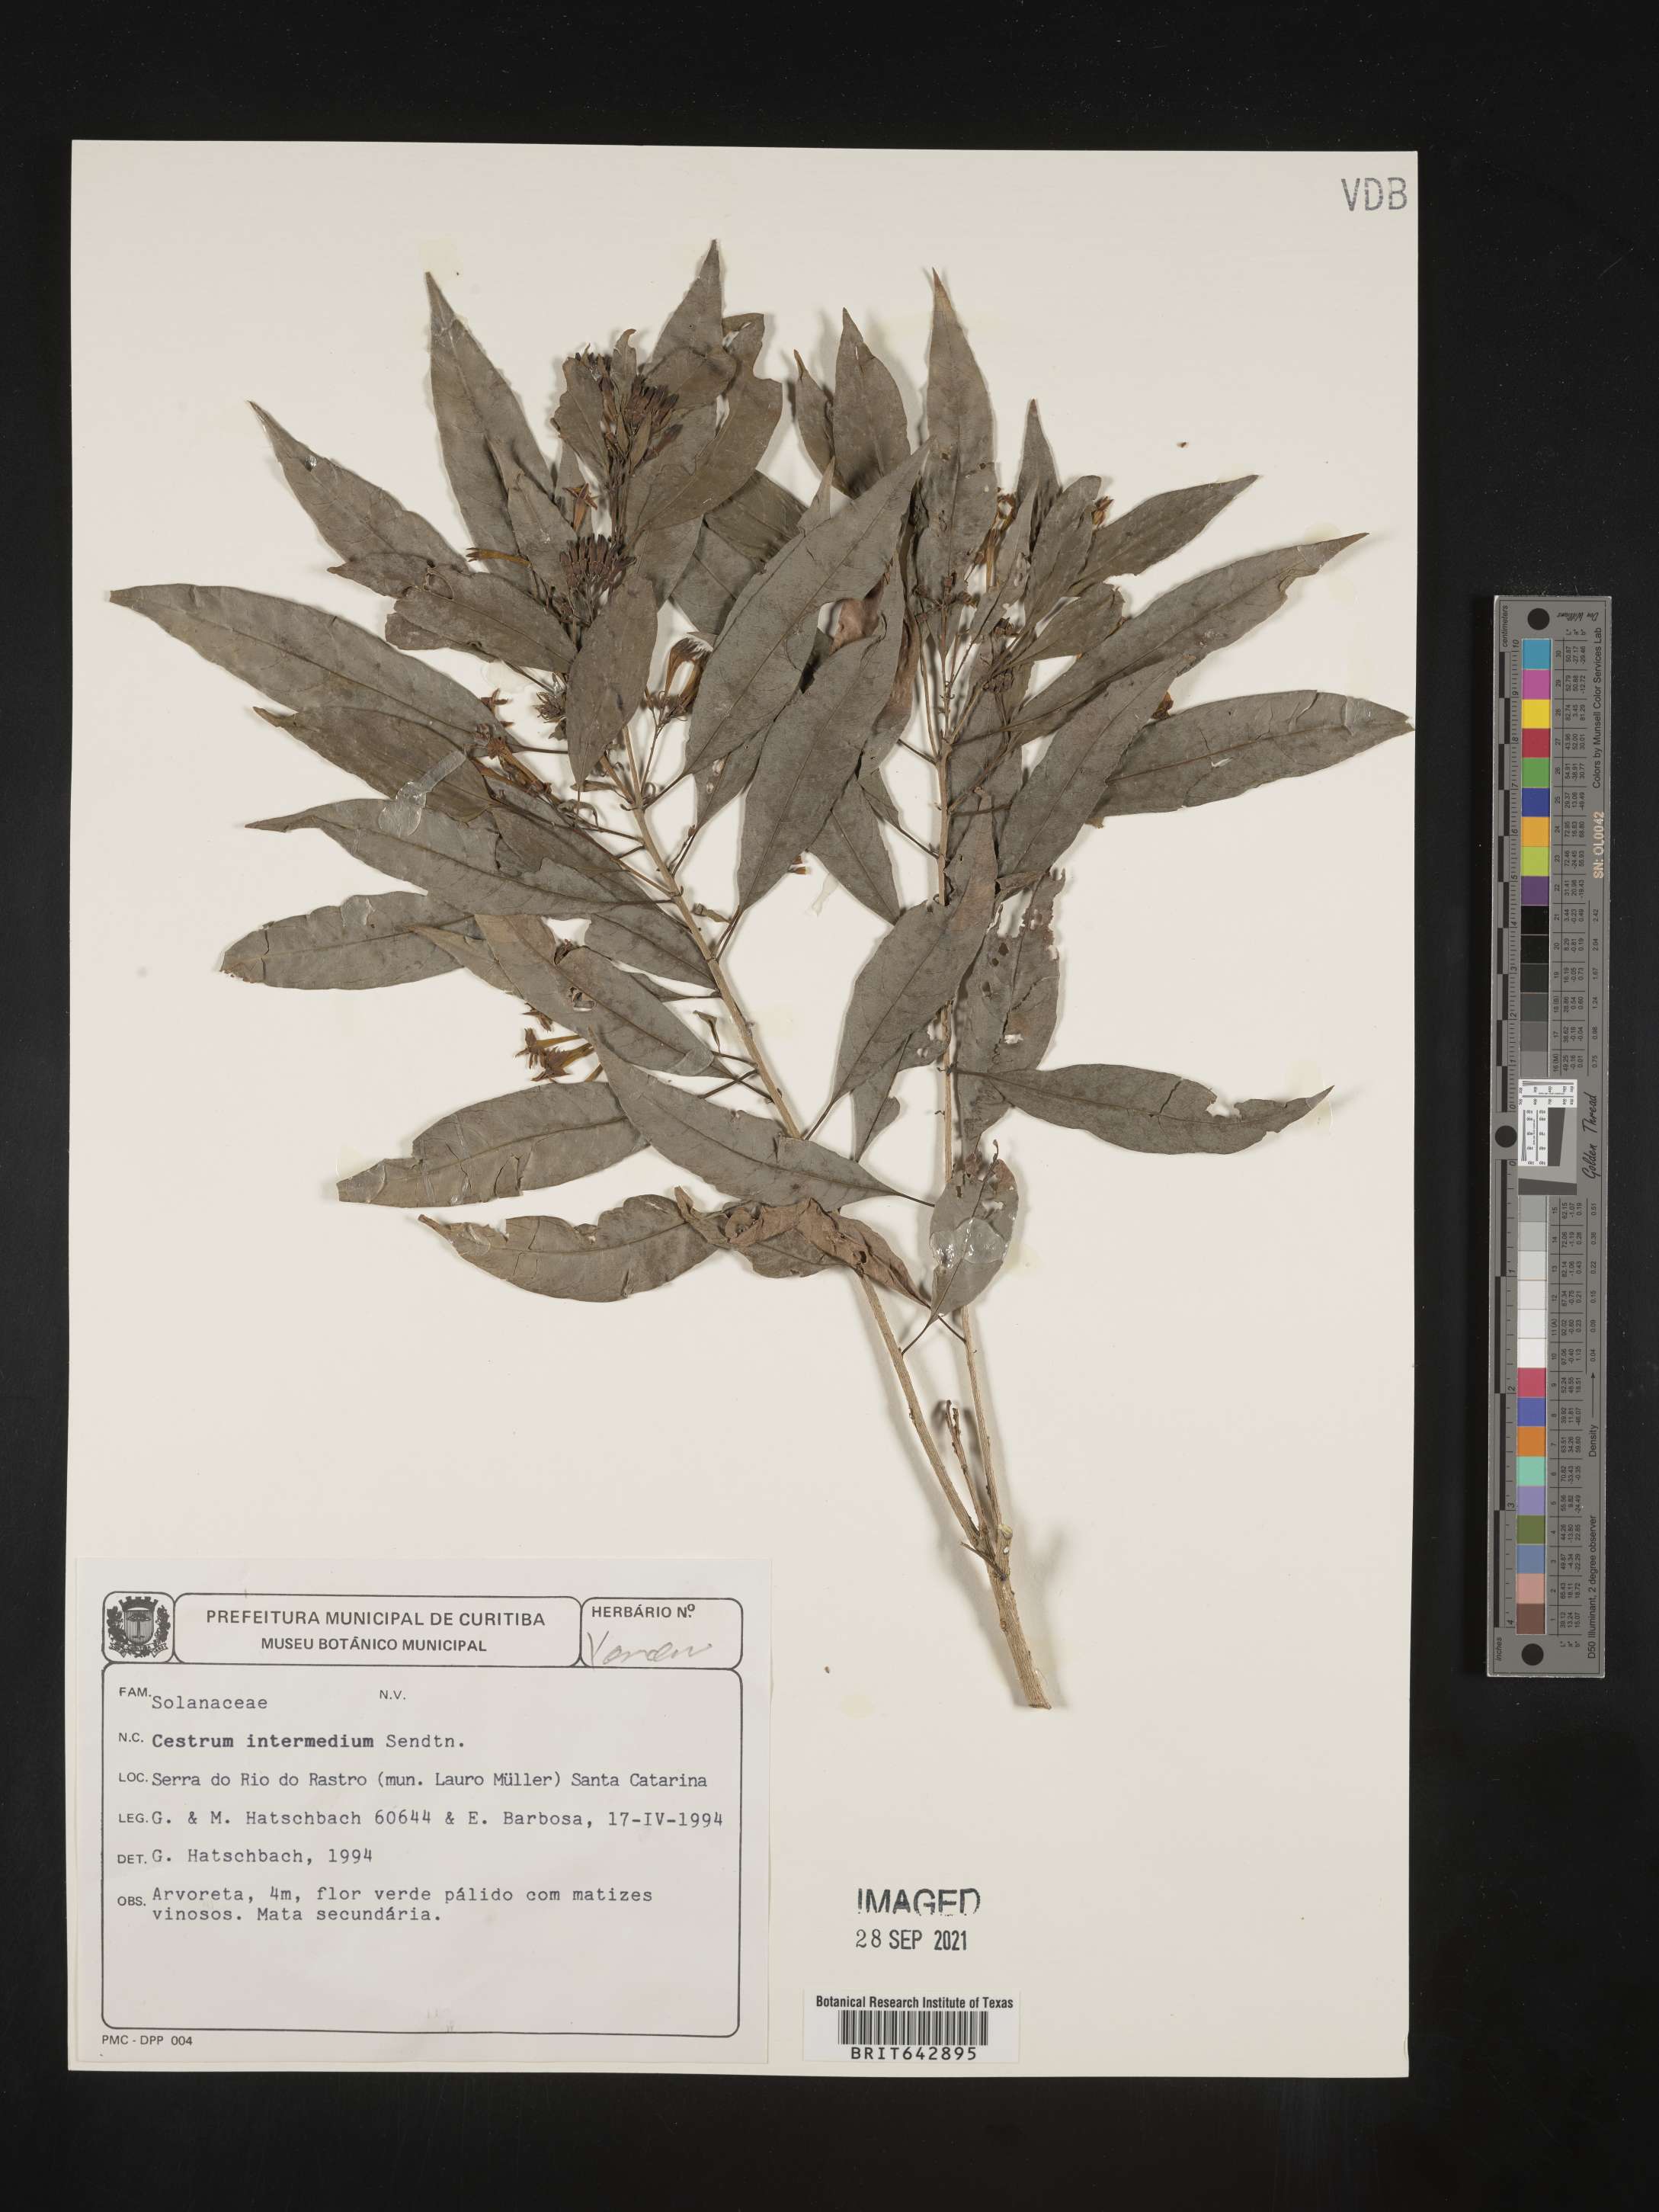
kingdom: Plantae
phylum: Tracheophyta
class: Magnoliopsida
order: Solanales
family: Solanaceae
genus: Cestrum
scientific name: Cestrum
